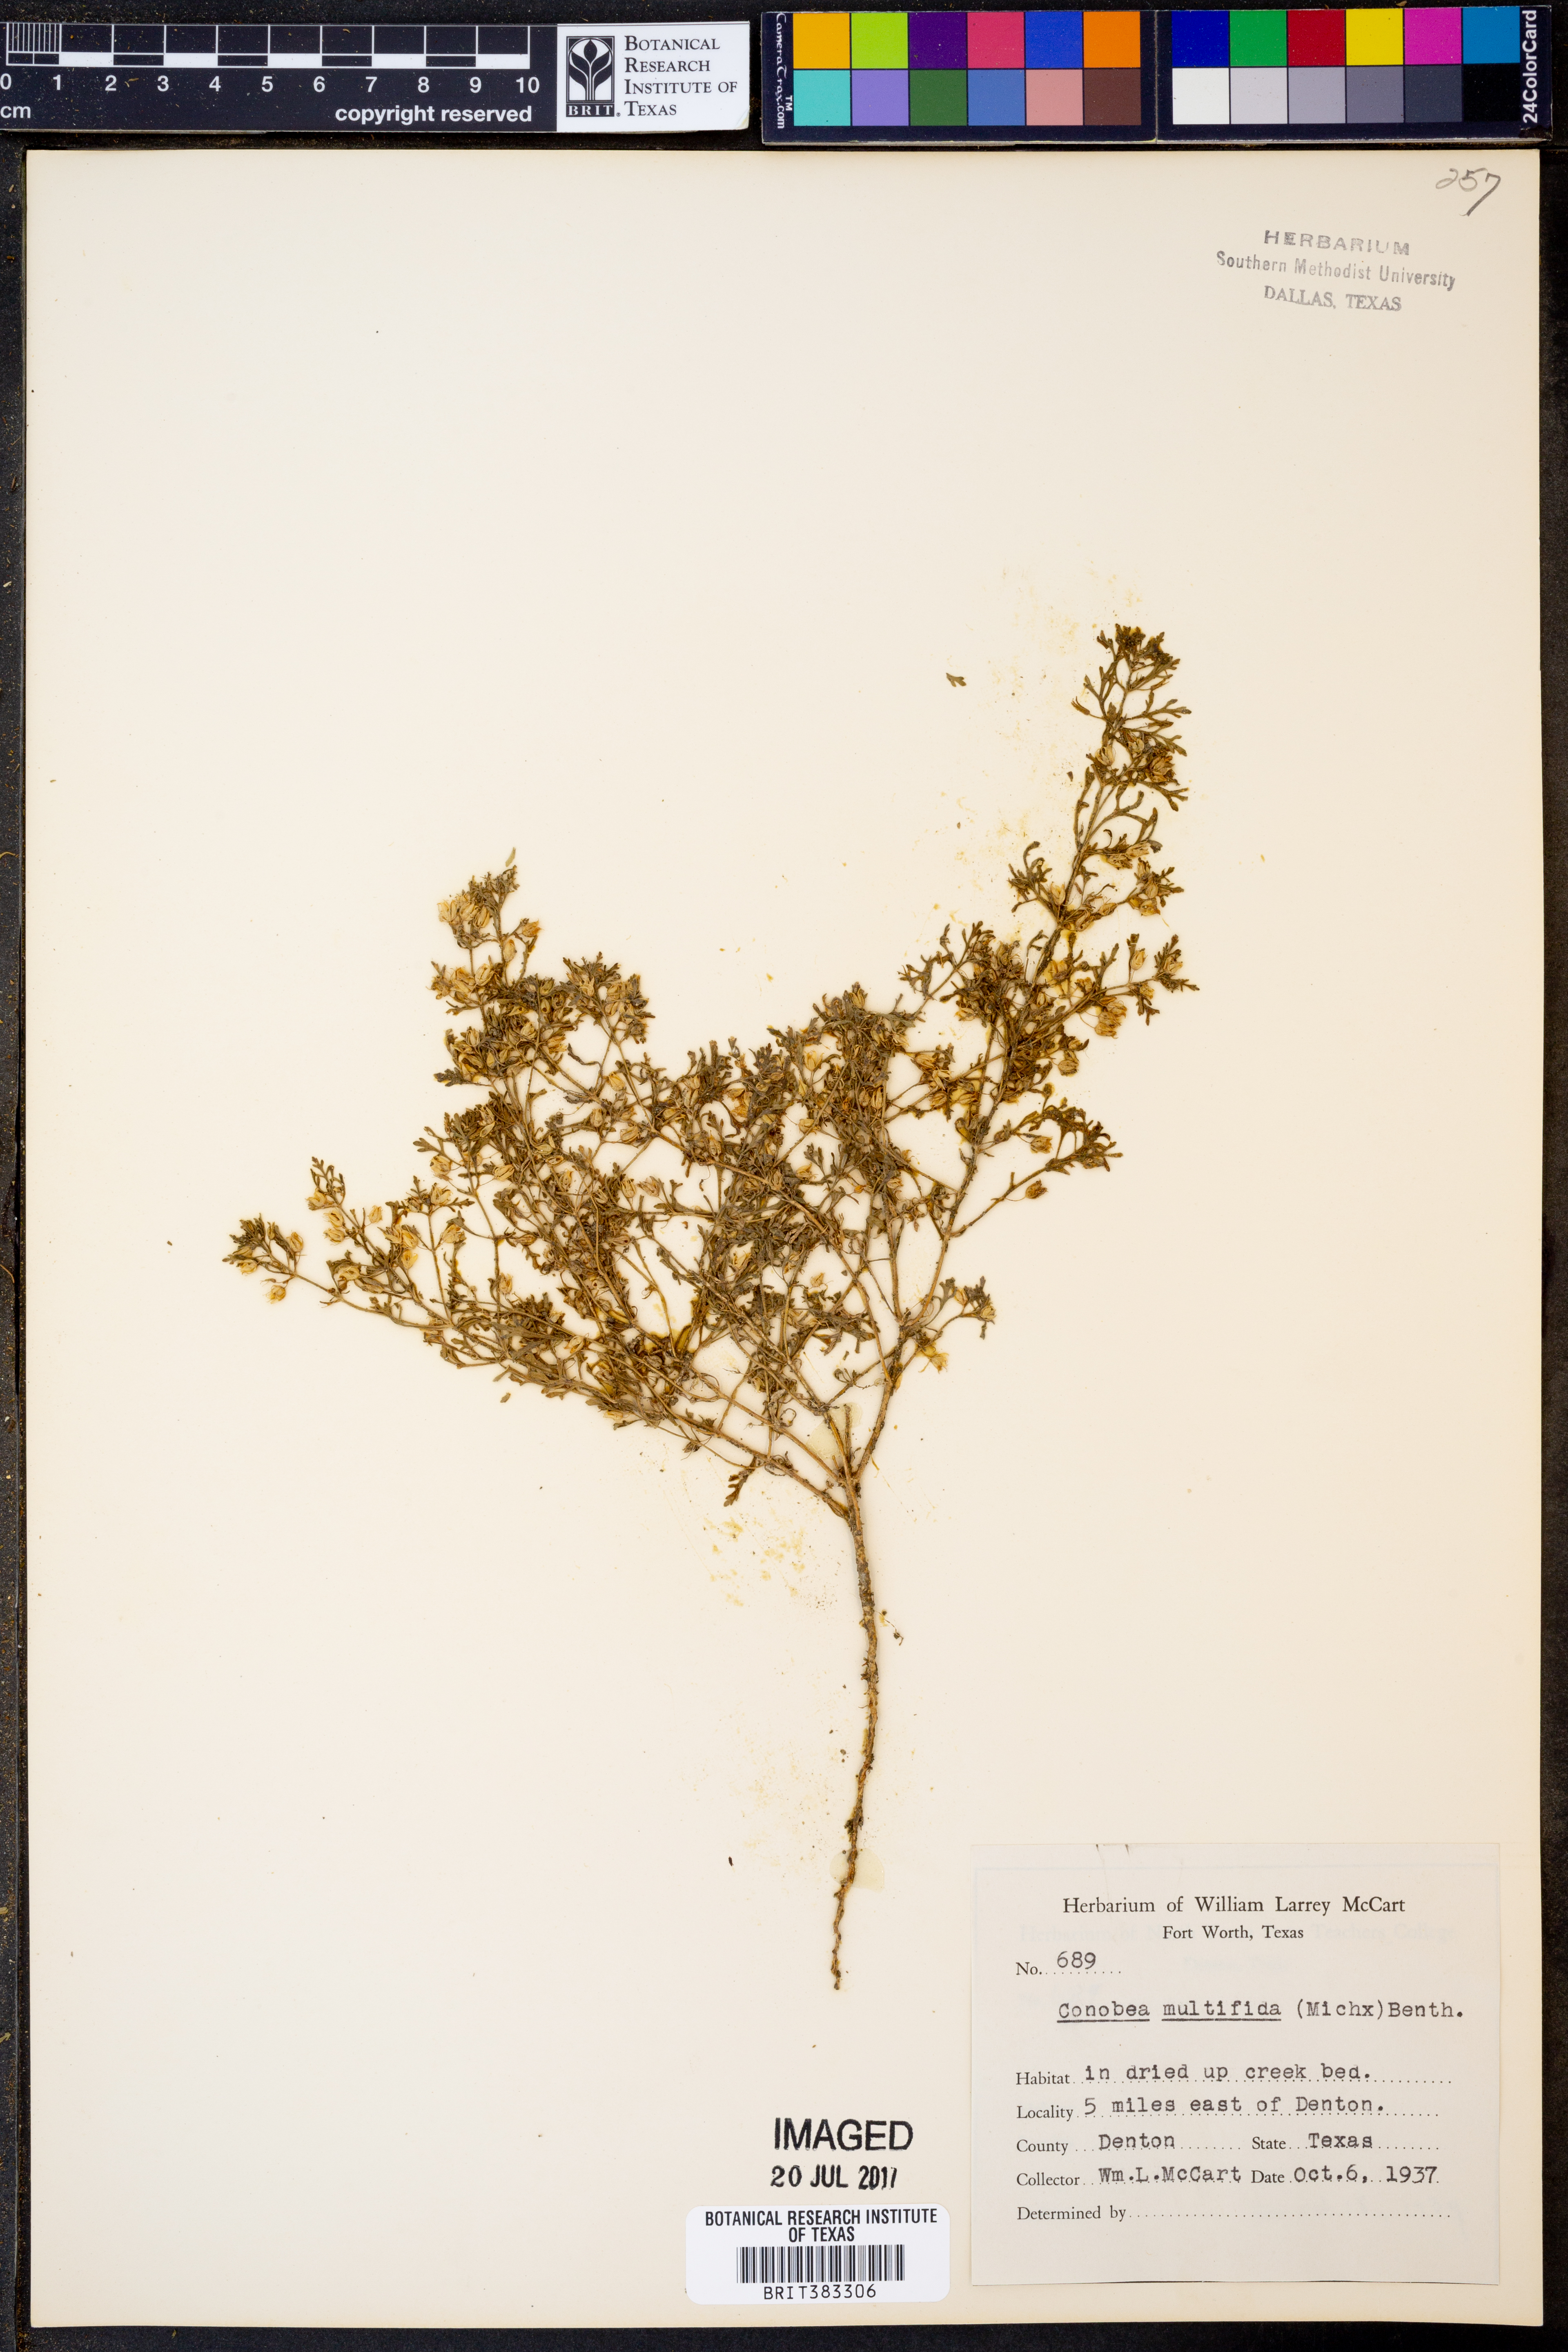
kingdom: Plantae
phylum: Tracheophyta
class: Magnoliopsida
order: Lamiales
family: Plantaginaceae
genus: Leucospora
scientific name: Leucospora multifida
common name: Narrow-leaf paleseed
